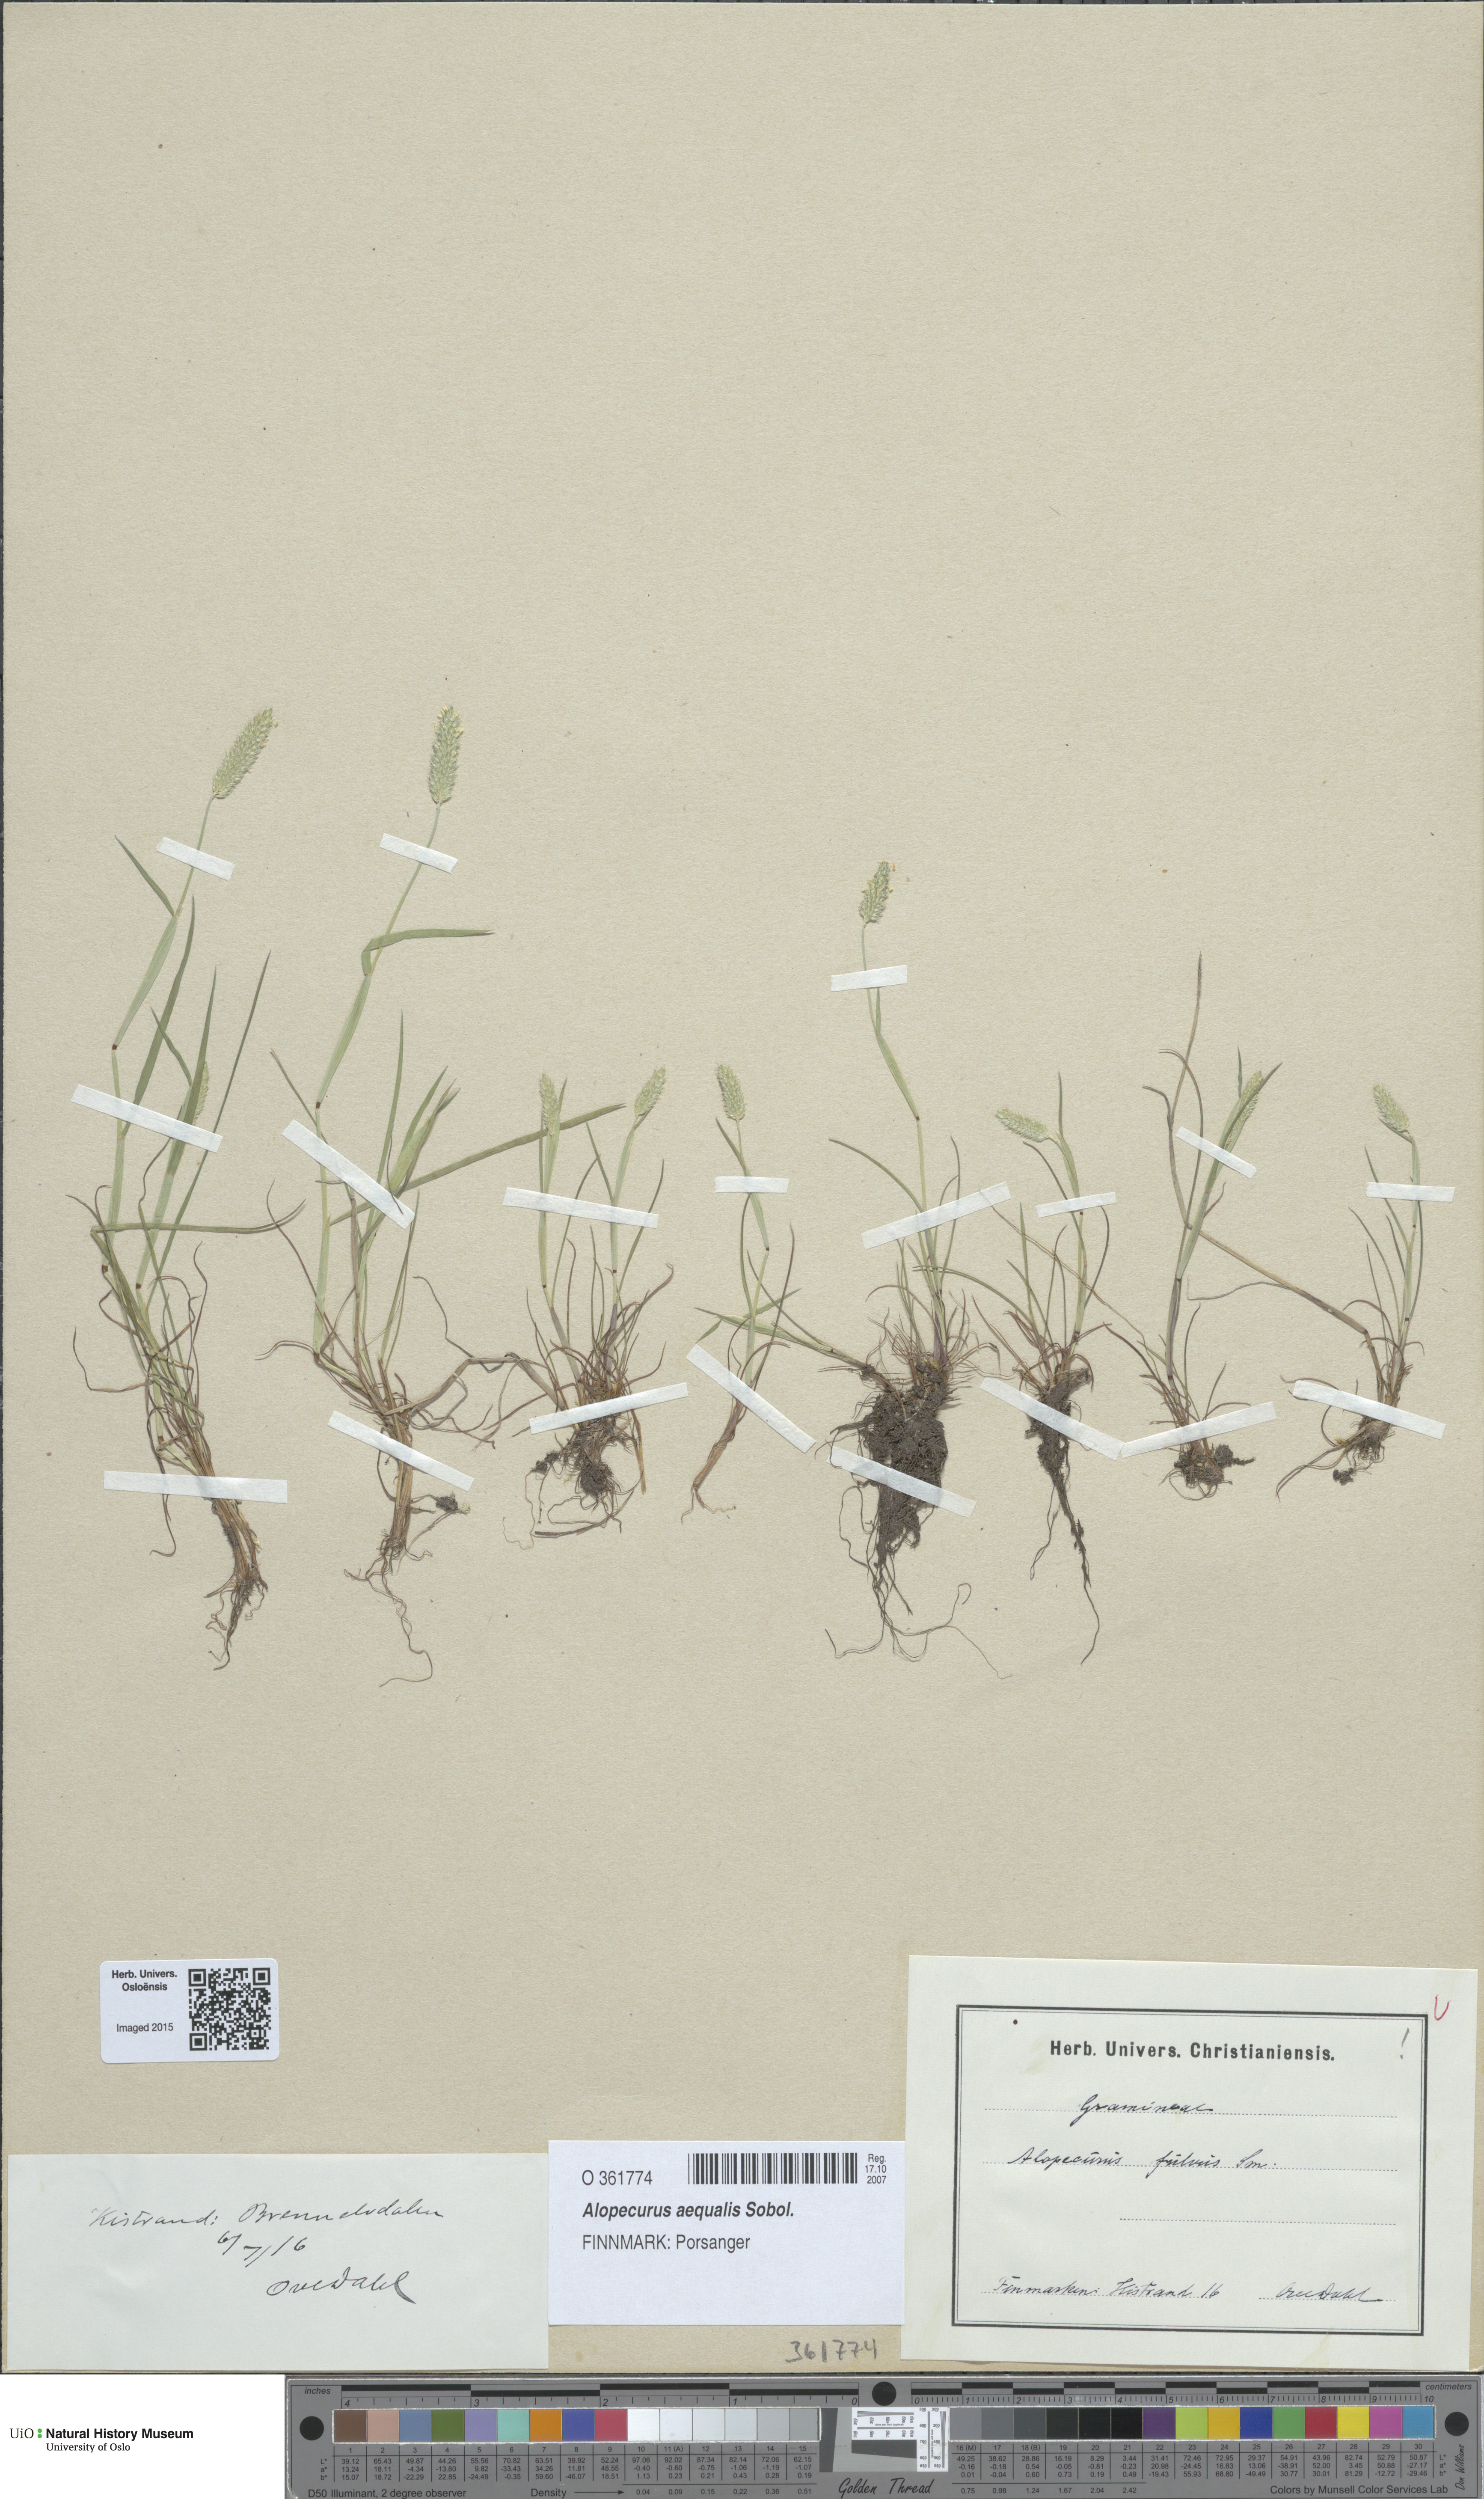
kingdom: Plantae
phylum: Tracheophyta
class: Liliopsida
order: Poales
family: Poaceae
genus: Alopecurus
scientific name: Alopecurus aequalis
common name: Orange foxtail
